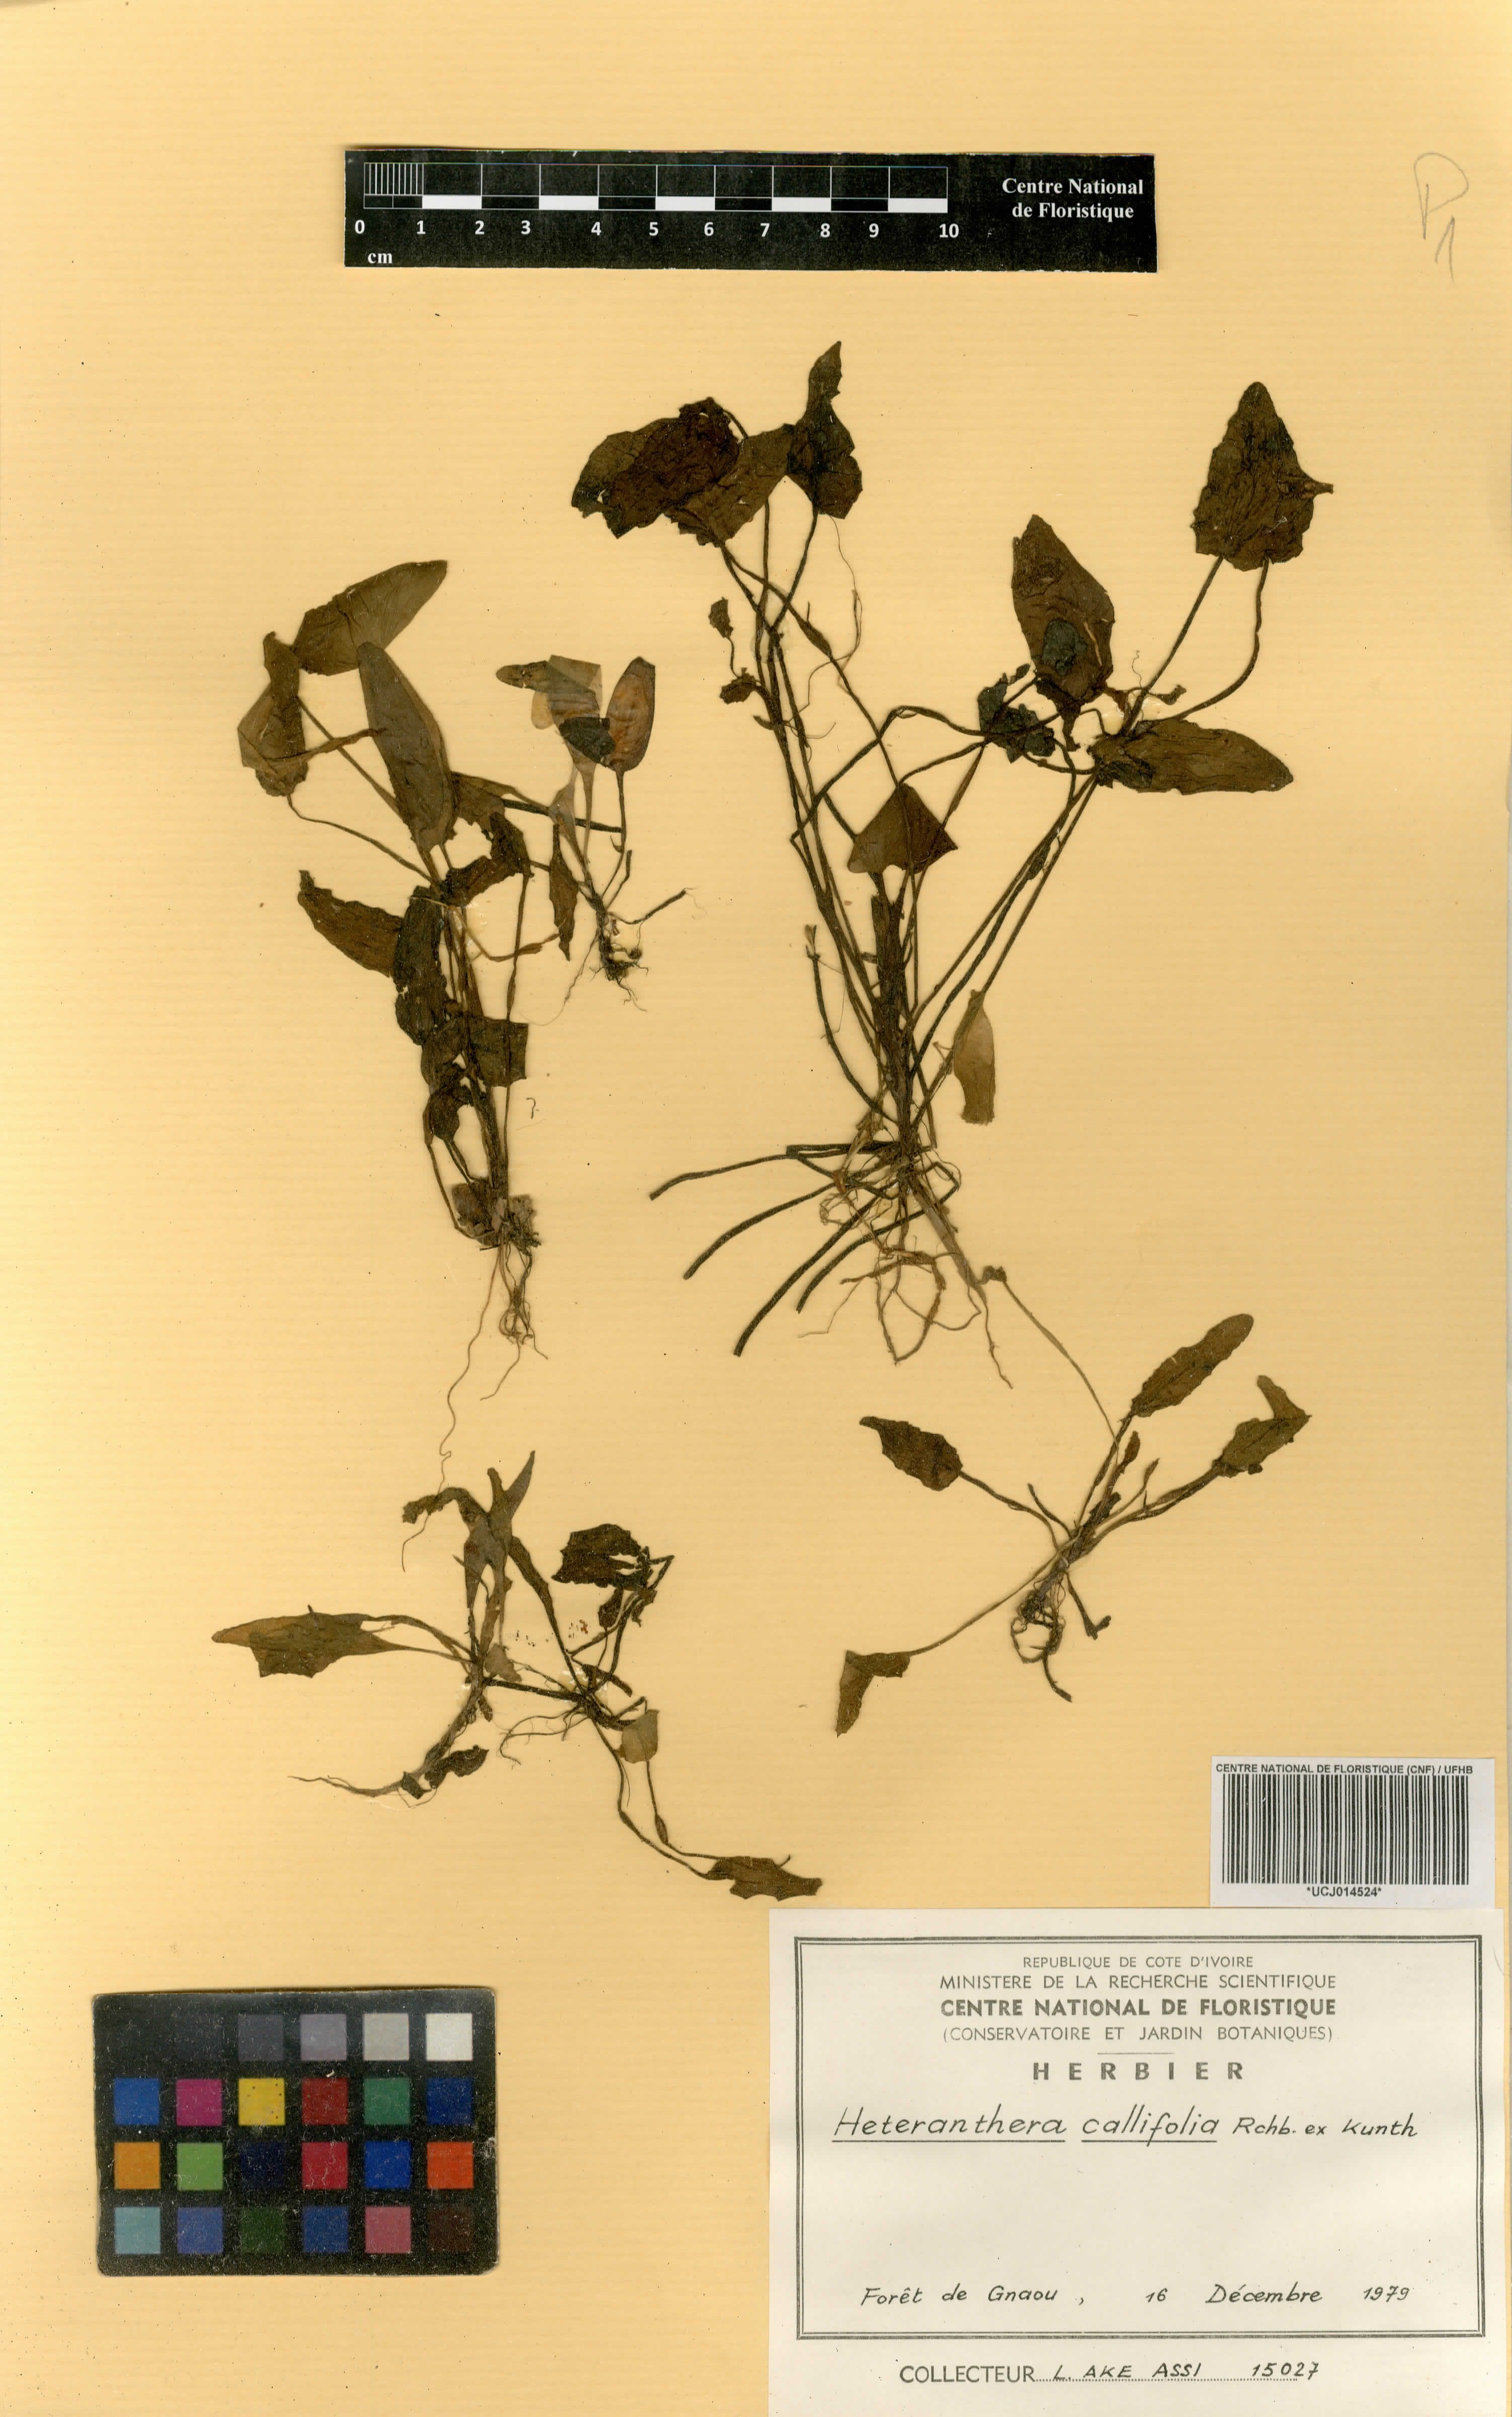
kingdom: Plantae
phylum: Tracheophyta
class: Liliopsida
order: Commelinales
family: Pontederiaceae
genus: Heteranthera
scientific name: Heteranthera callifolia
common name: Mud plantain
